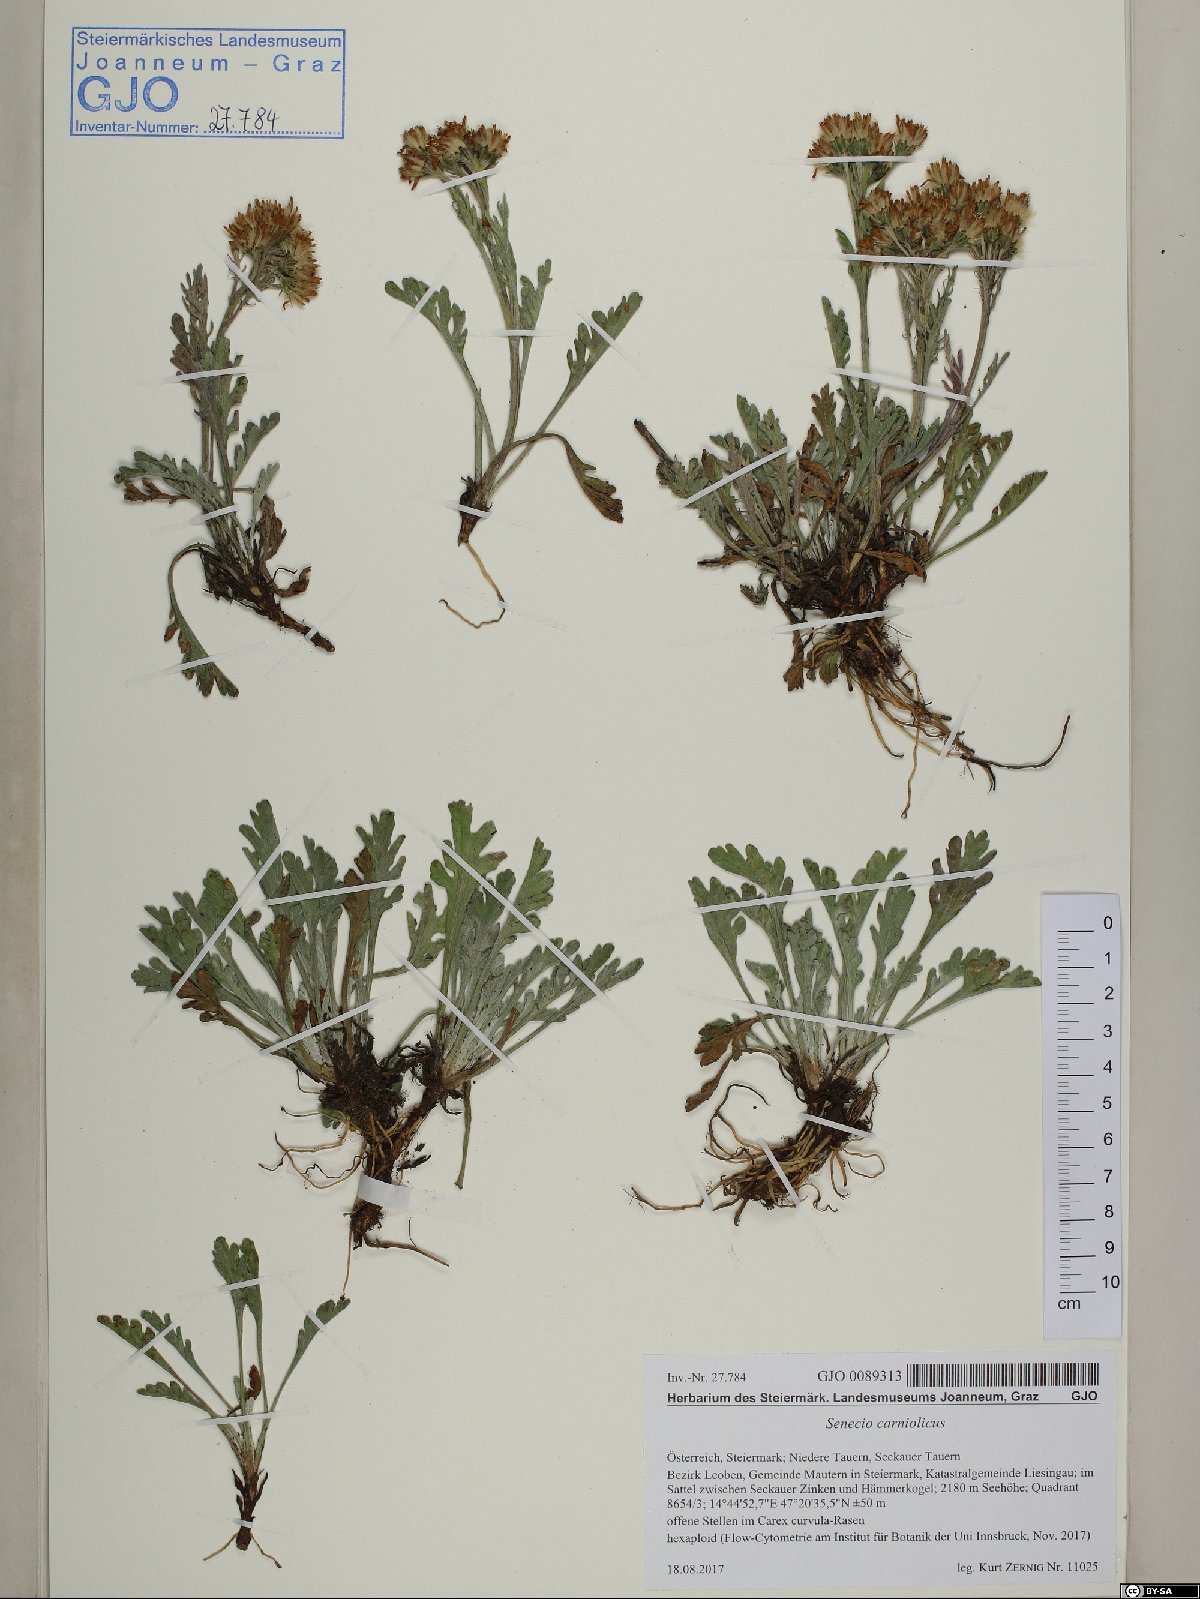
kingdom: Plantae
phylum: Tracheophyta
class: Magnoliopsida
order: Asterales
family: Asteraceae
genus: Jacobaea
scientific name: Jacobaea carniolica
